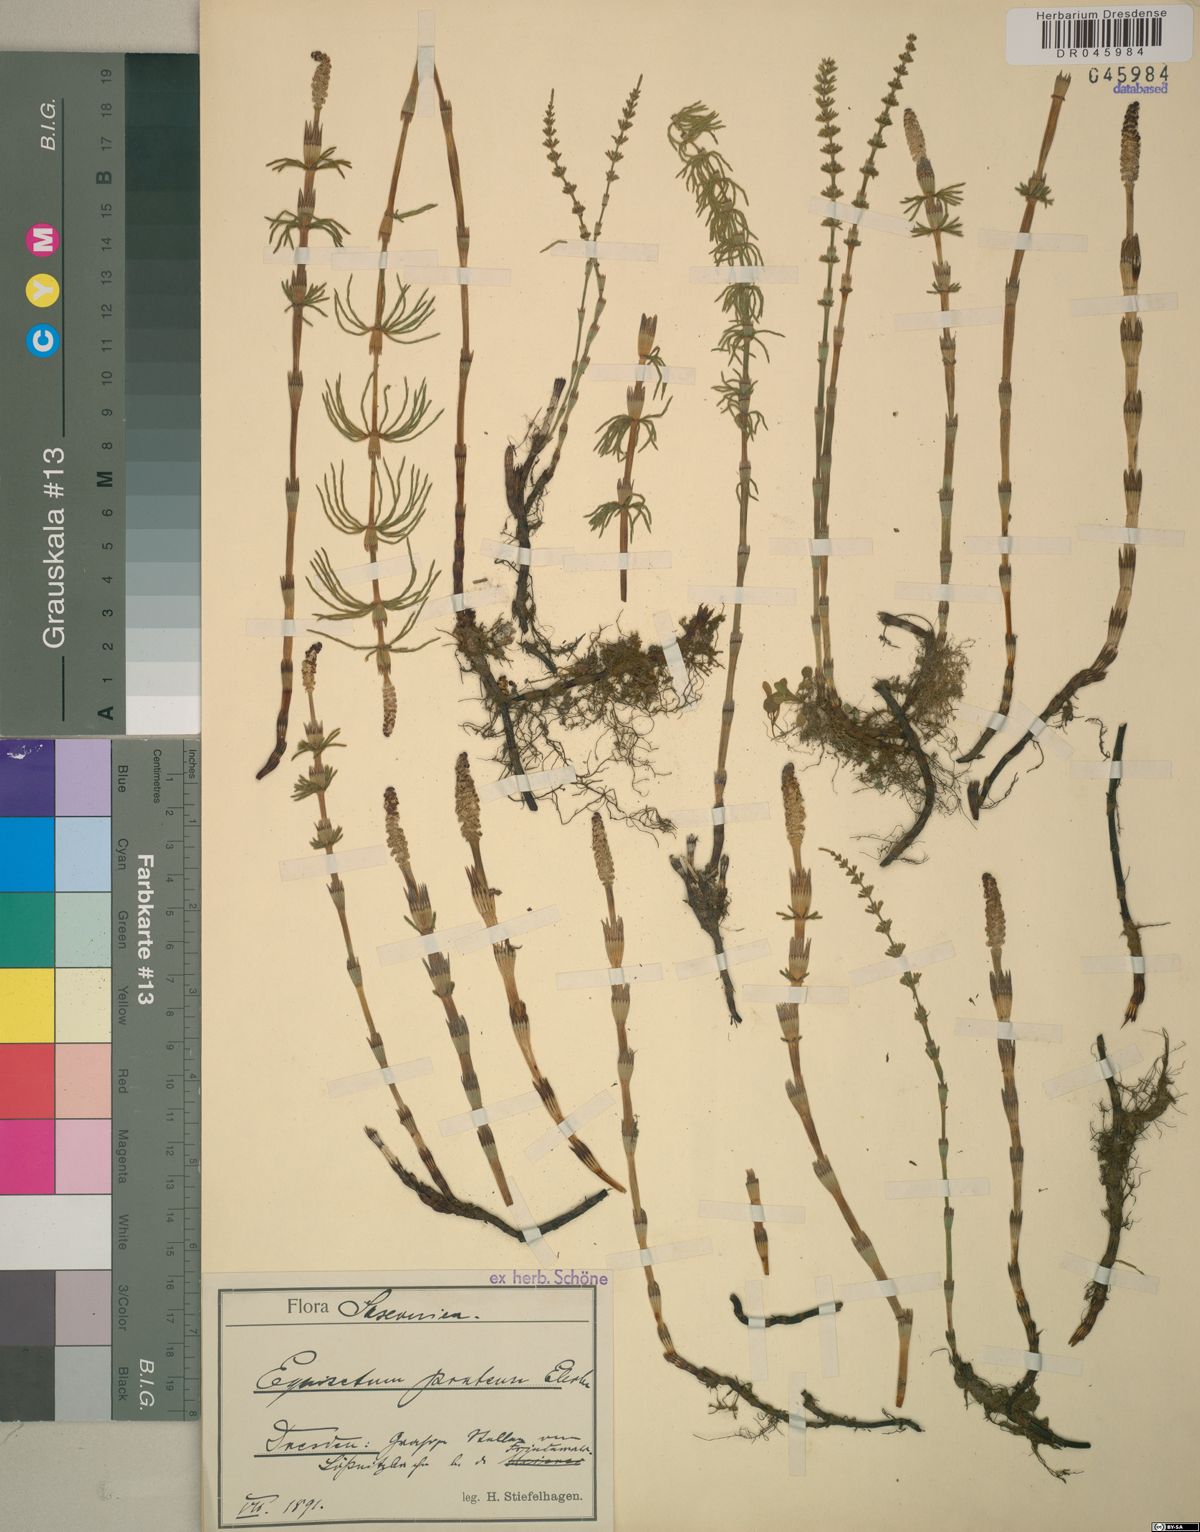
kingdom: Plantae
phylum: Tracheophyta
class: Polypodiopsida
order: Equisetales
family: Equisetaceae
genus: Equisetum
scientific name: Equisetum pratense
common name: Meadow horsetail
